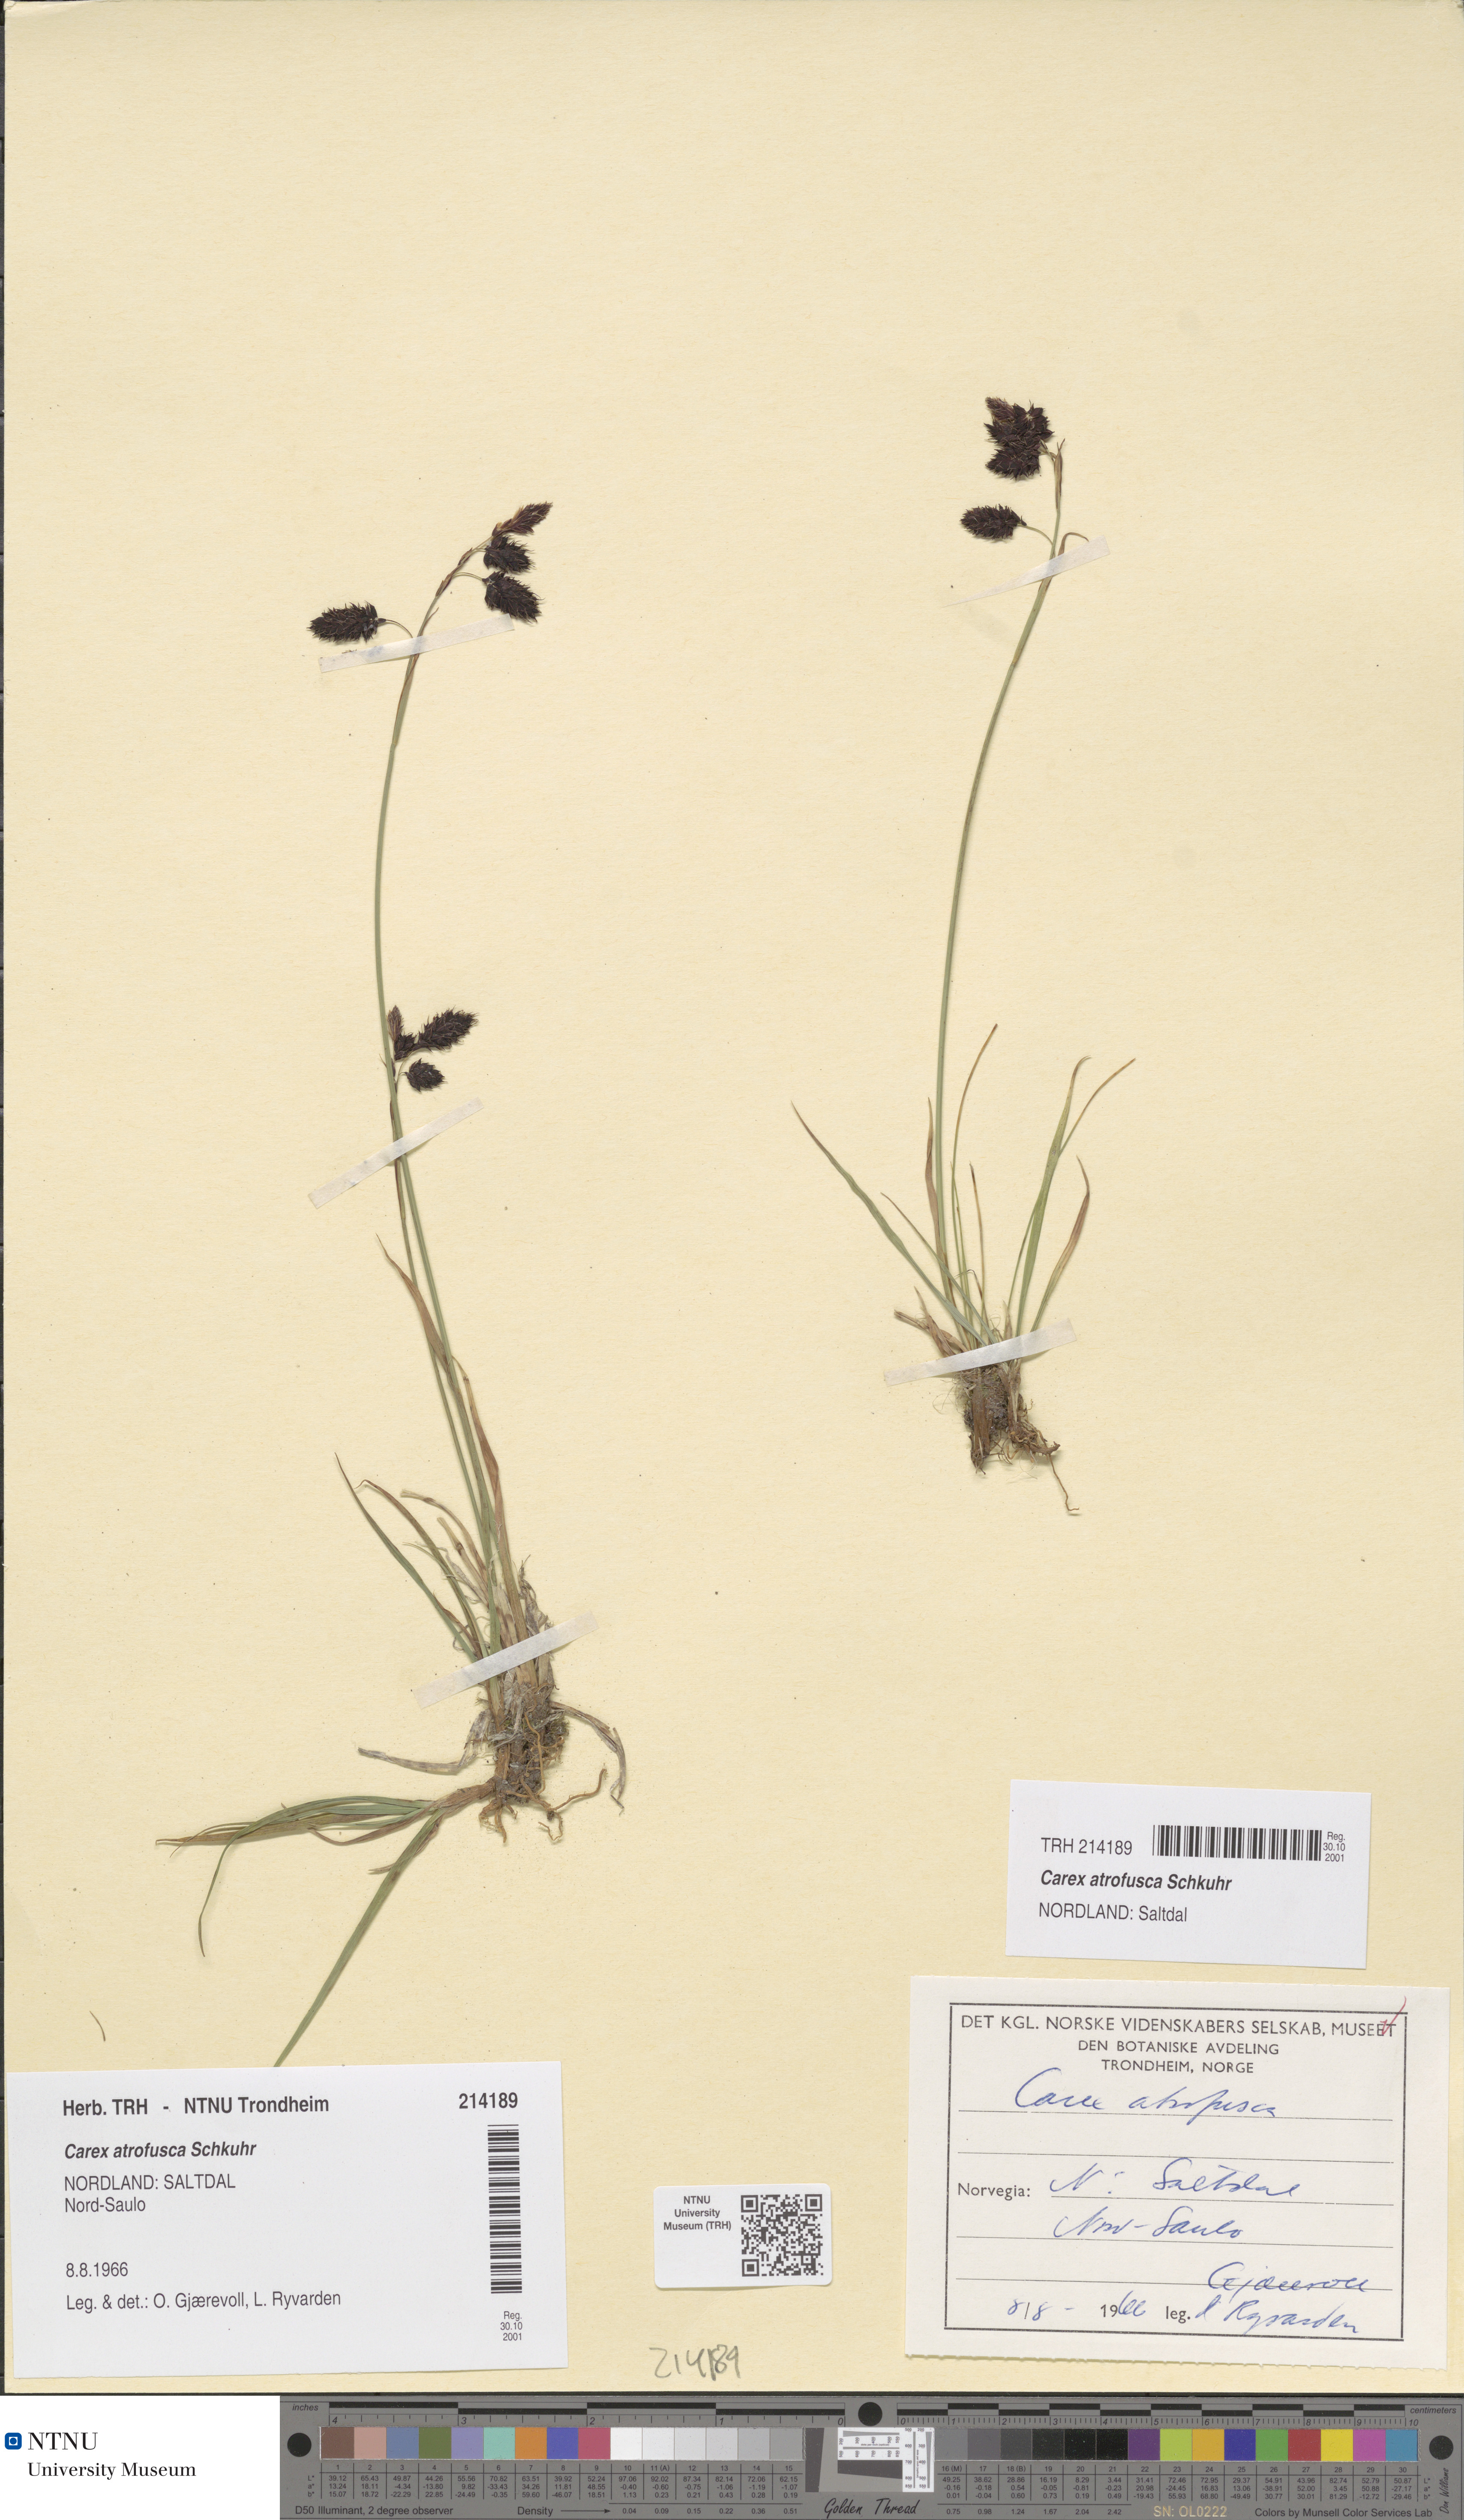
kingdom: Plantae
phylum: Tracheophyta
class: Liliopsida
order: Poales
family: Cyperaceae
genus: Carex
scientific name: Carex atrofusca
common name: Scorched alpine-sedge
